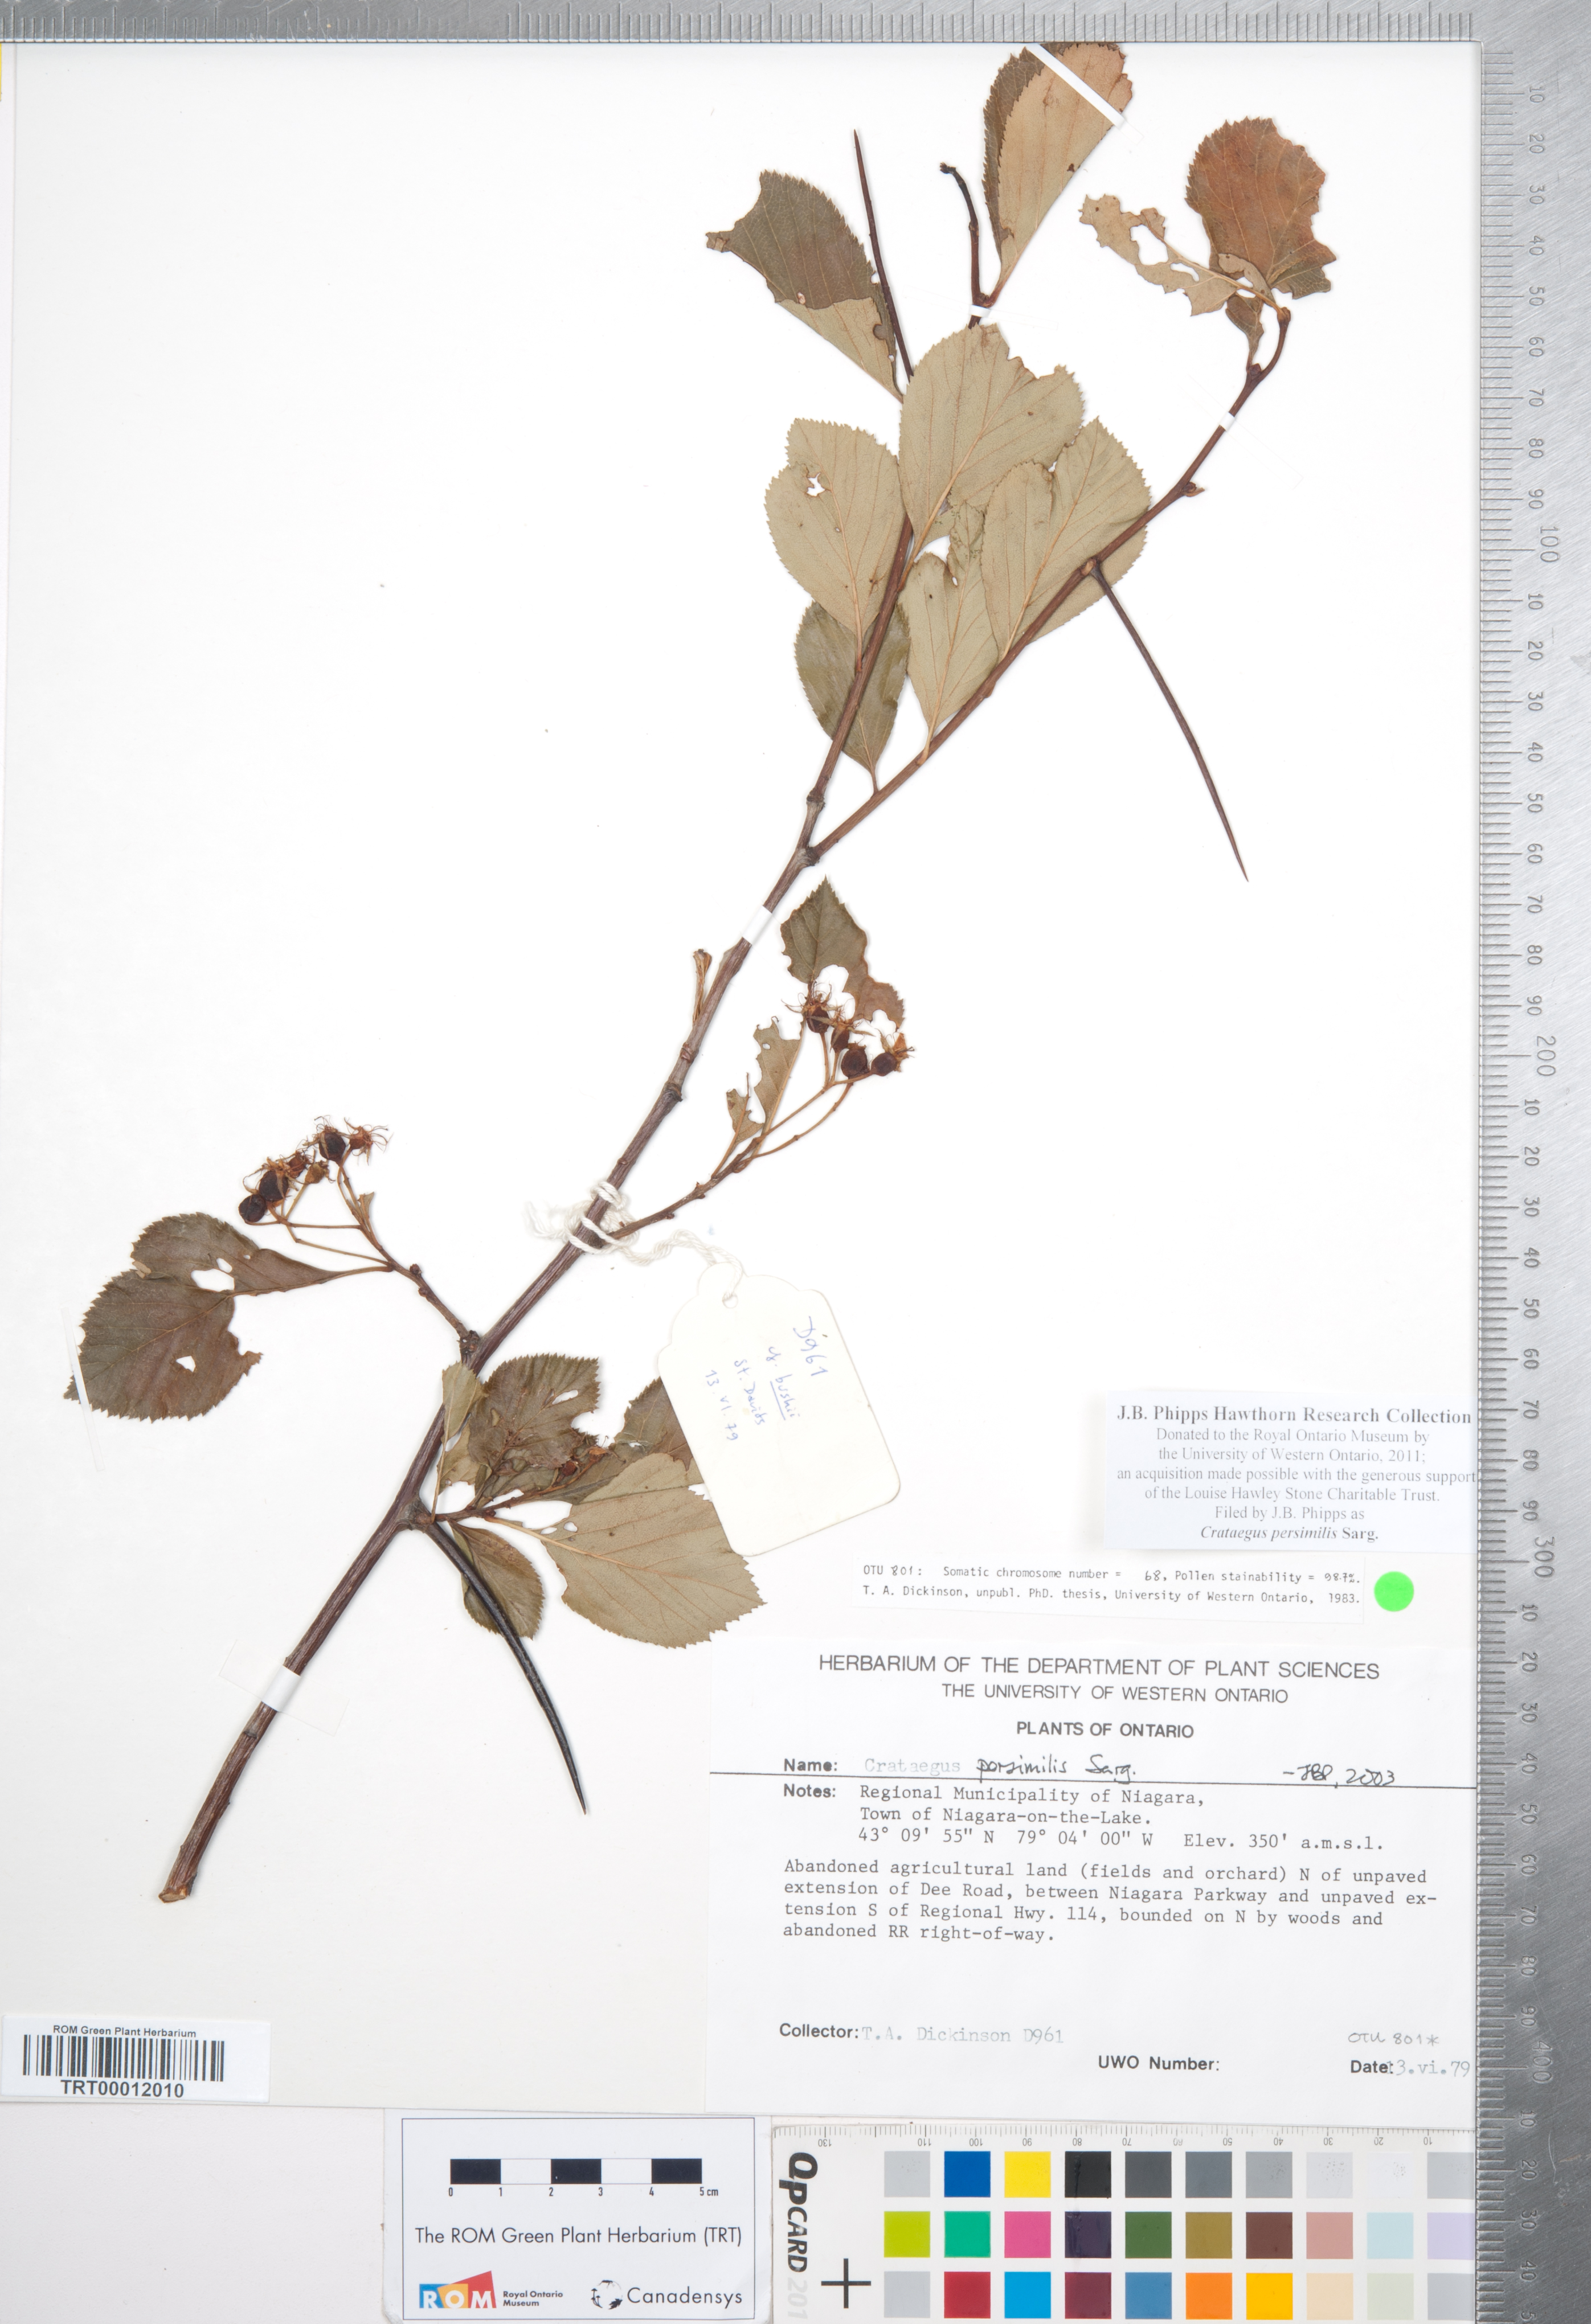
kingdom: Plantae
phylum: Tracheophyta
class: Magnoliopsida
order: Rosales
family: Rosaceae
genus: Crataegus
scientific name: Crataegus persimilis
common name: Broad-leaved cockspurthorn
